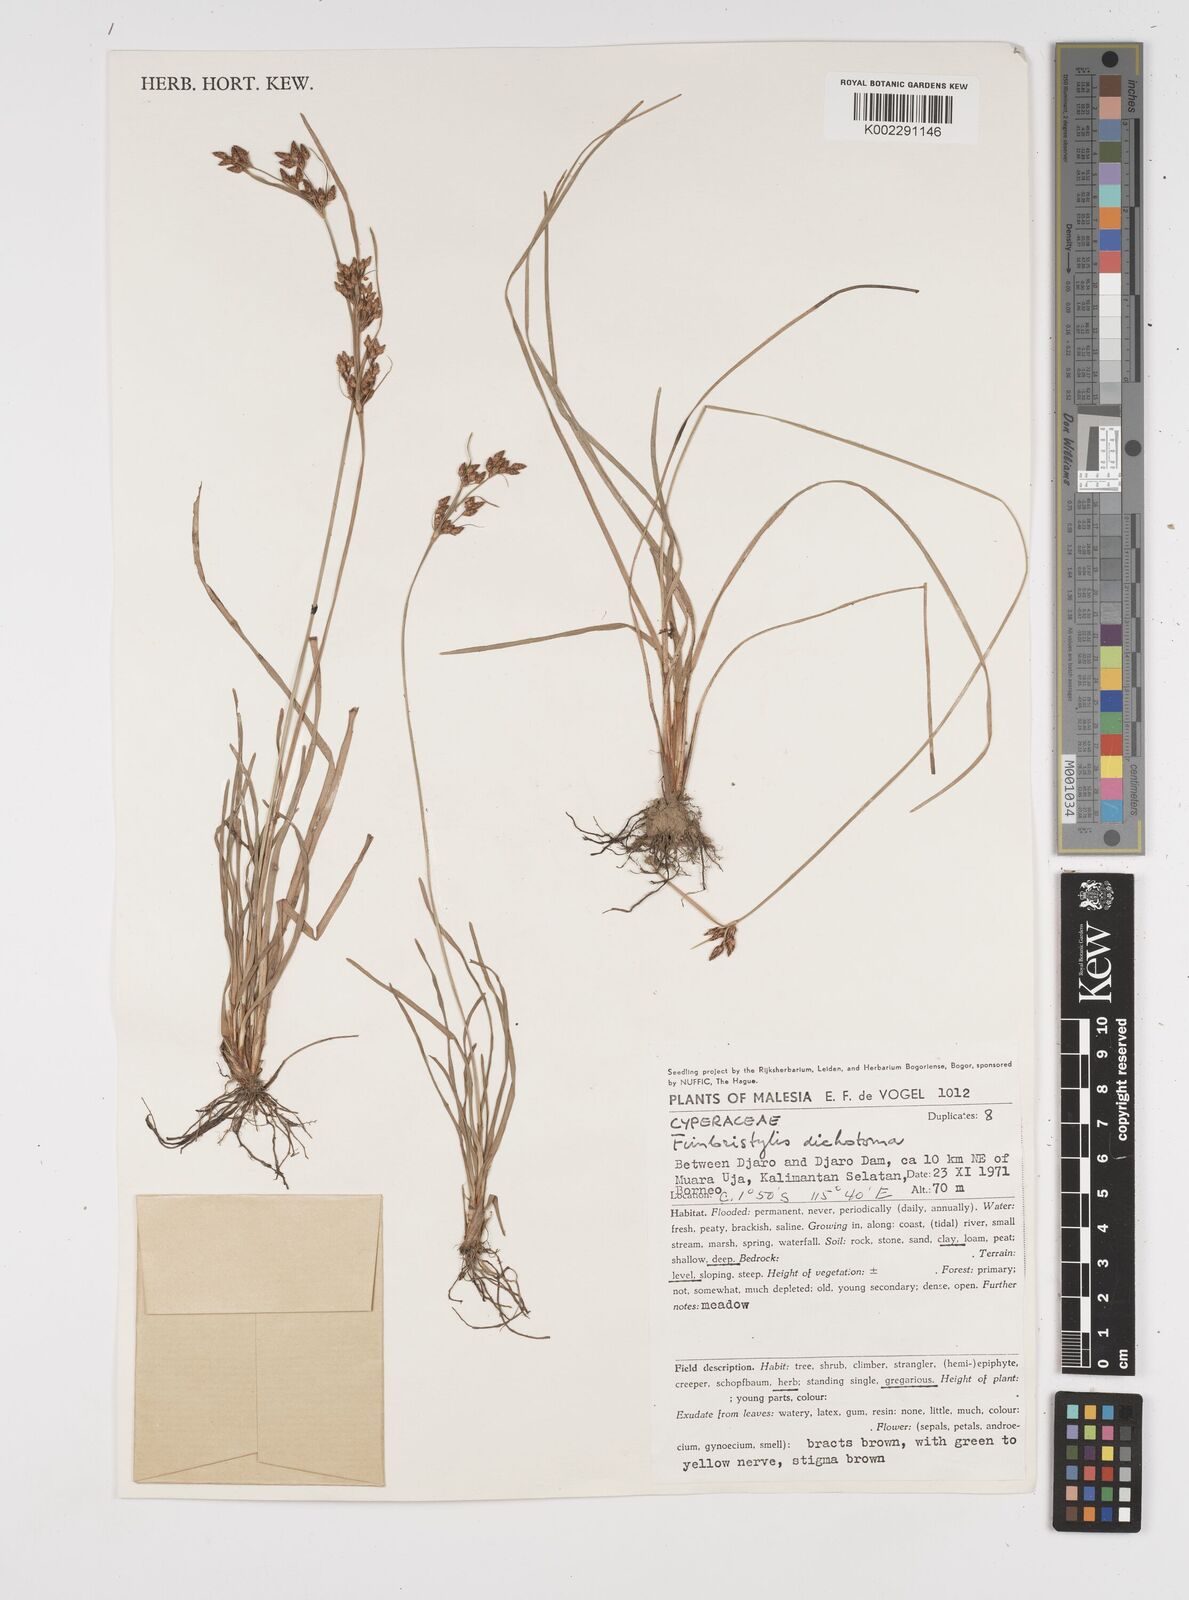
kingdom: Plantae
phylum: Tracheophyta
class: Liliopsida
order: Poales
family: Cyperaceae
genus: Fimbristylis
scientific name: Fimbristylis dichotoma
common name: Forked fimbry
